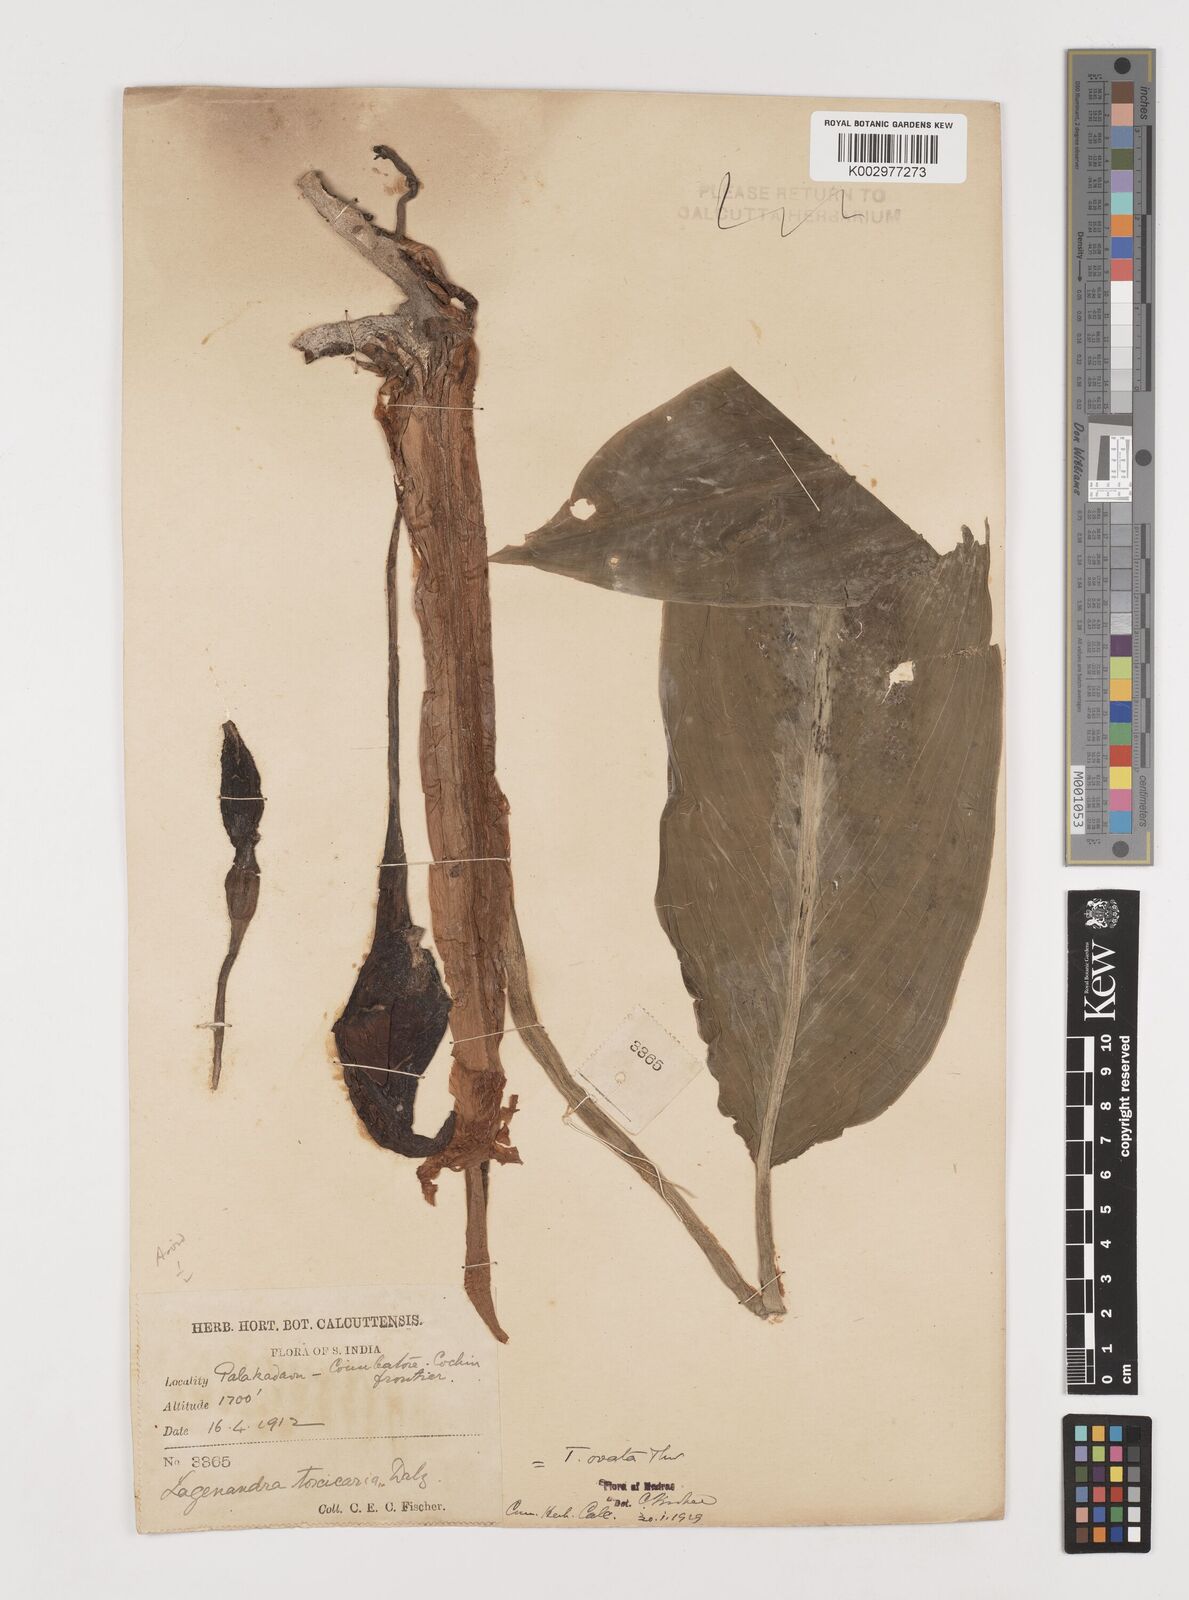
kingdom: Plantae
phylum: Tracheophyta
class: Liliopsida
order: Alismatales
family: Araceae
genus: Lagenandra
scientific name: Lagenandra ovata
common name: Malayan sword
